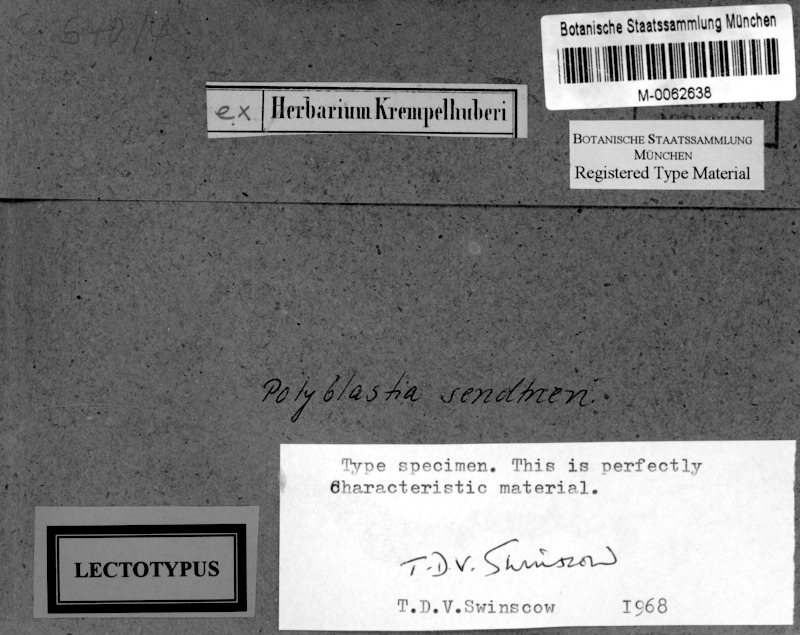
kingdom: Fungi
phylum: Ascomycota
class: Eurotiomycetes
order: Verrucariales
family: Verrucariaceae
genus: Polyblastia
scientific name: Polyblastia sendtneri
